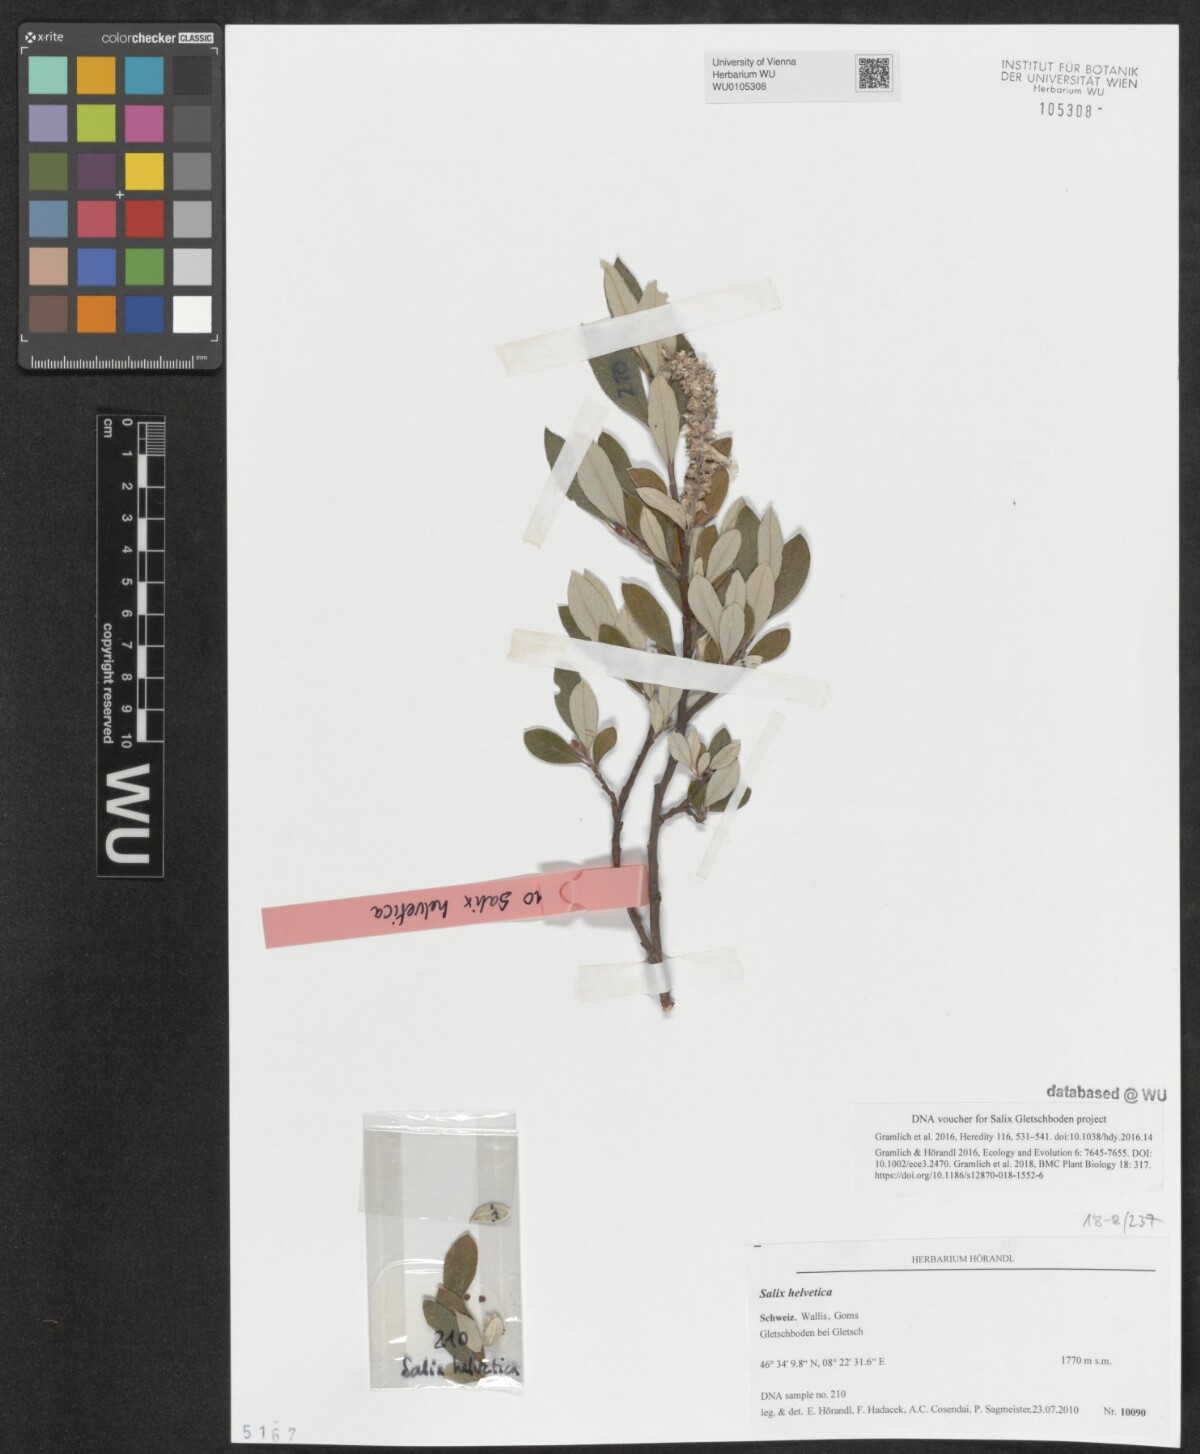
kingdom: Plantae
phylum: Tracheophyta
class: Magnoliopsida
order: Malpighiales
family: Salicaceae
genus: Salix
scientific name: Salix helvetica
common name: Swiss willow
